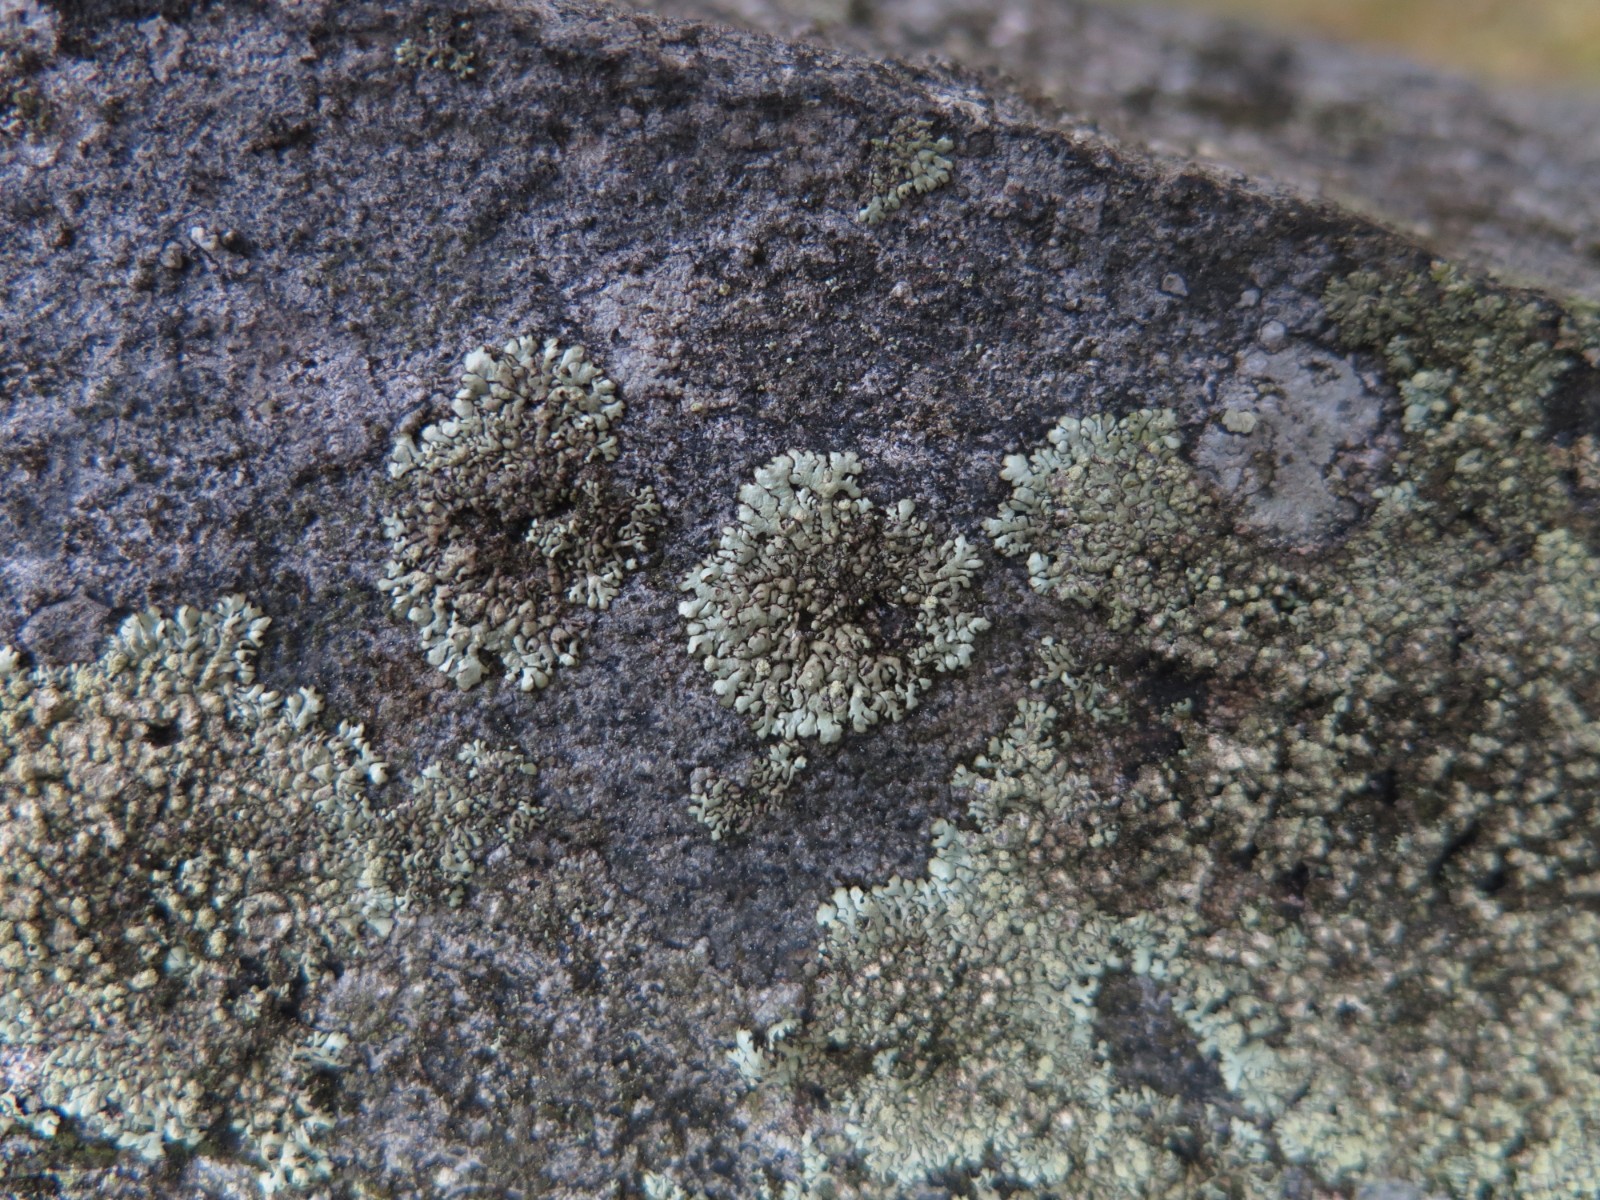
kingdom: Fungi
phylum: Ascomycota
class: Lecanoromycetes
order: Lecanorales
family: Parmeliaceae
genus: Xanthoparmelia
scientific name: Xanthoparmelia mougeotii
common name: liden skållav
